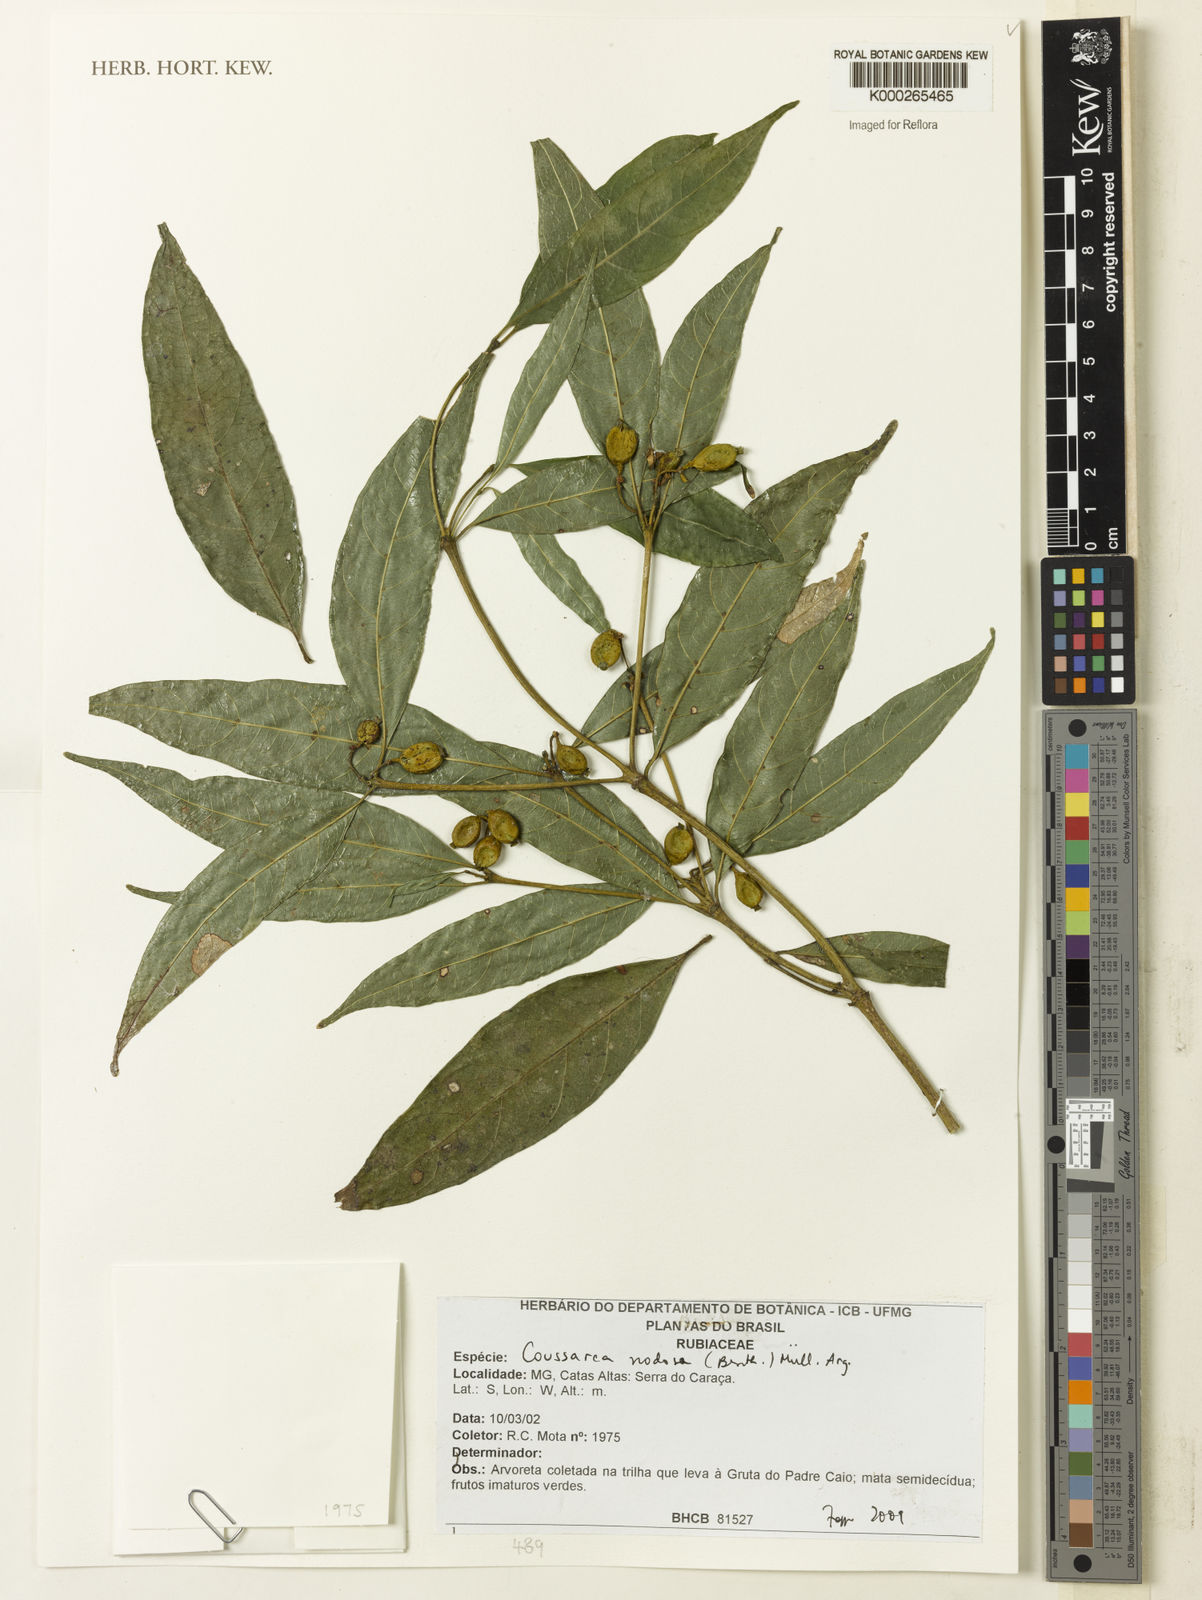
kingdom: Plantae
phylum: Tracheophyta
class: Magnoliopsida
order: Gentianales
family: Rubiaceae
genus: Coussarea
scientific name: Coussarea
